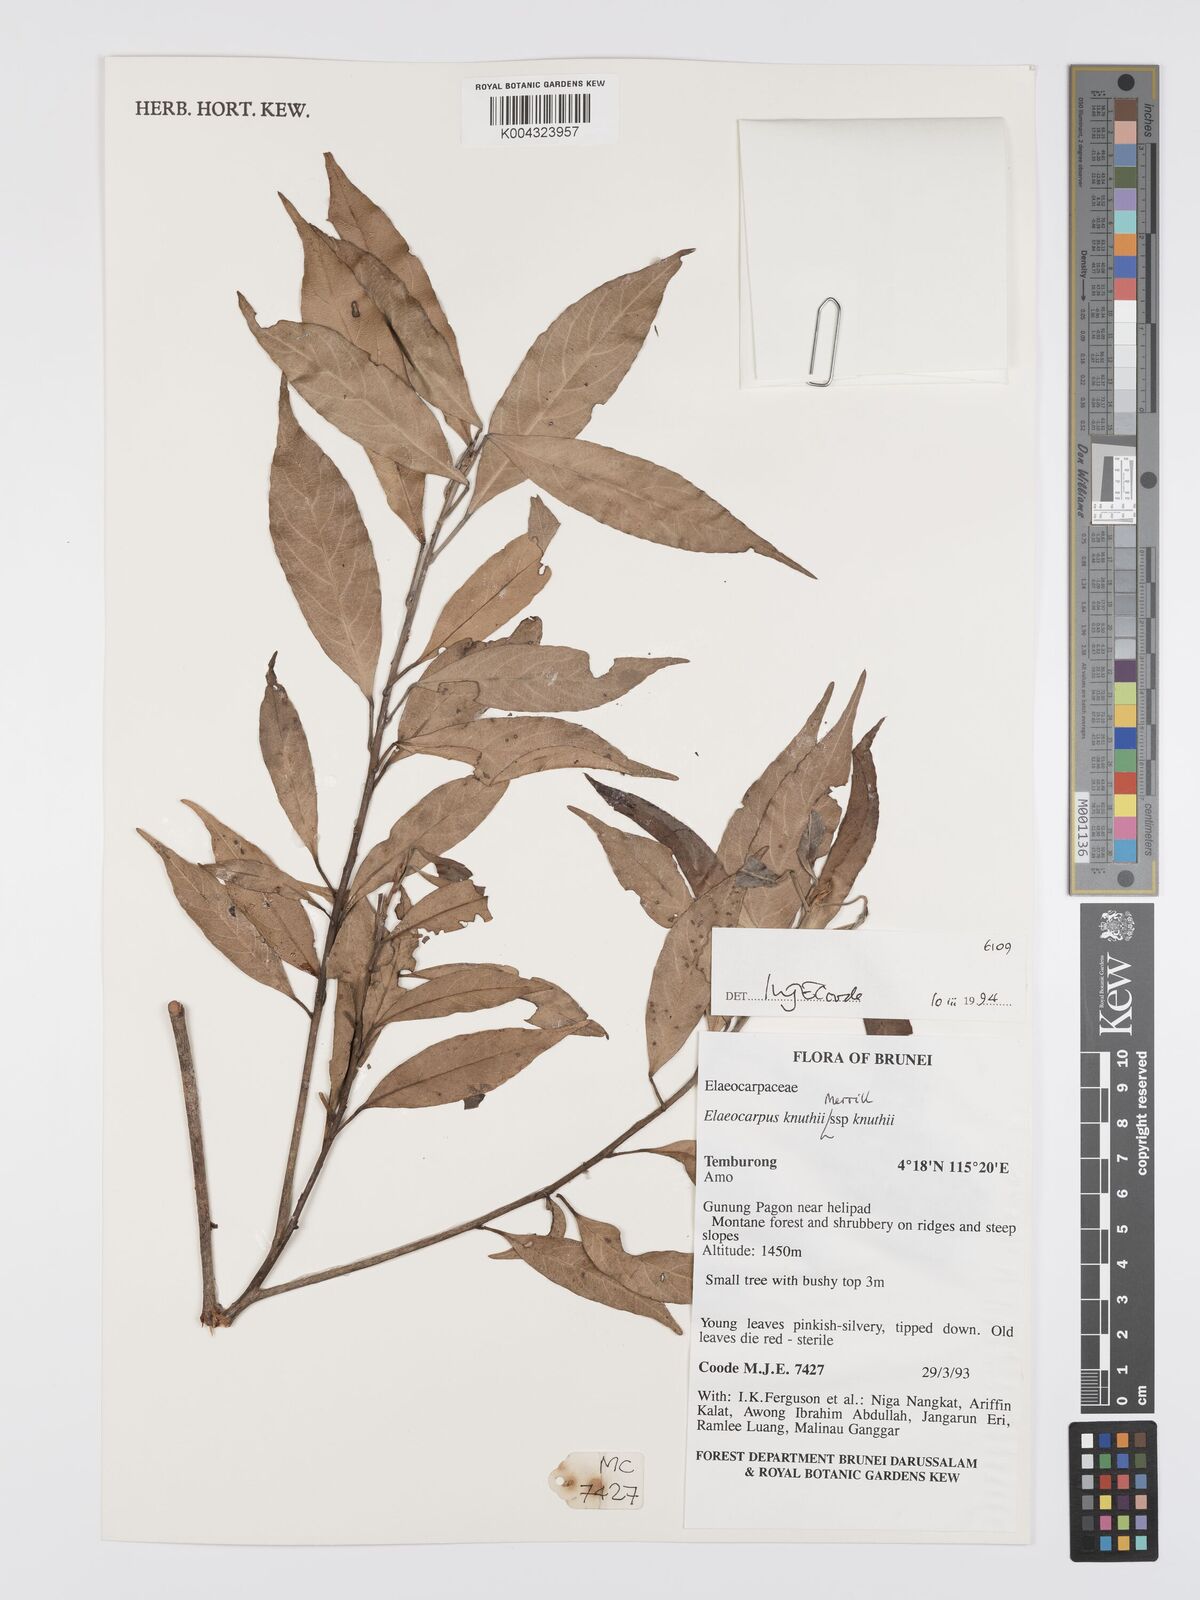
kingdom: Plantae
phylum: Tracheophyta
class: Magnoliopsida
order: Oxalidales
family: Elaeocarpaceae
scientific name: Elaeocarpaceae
